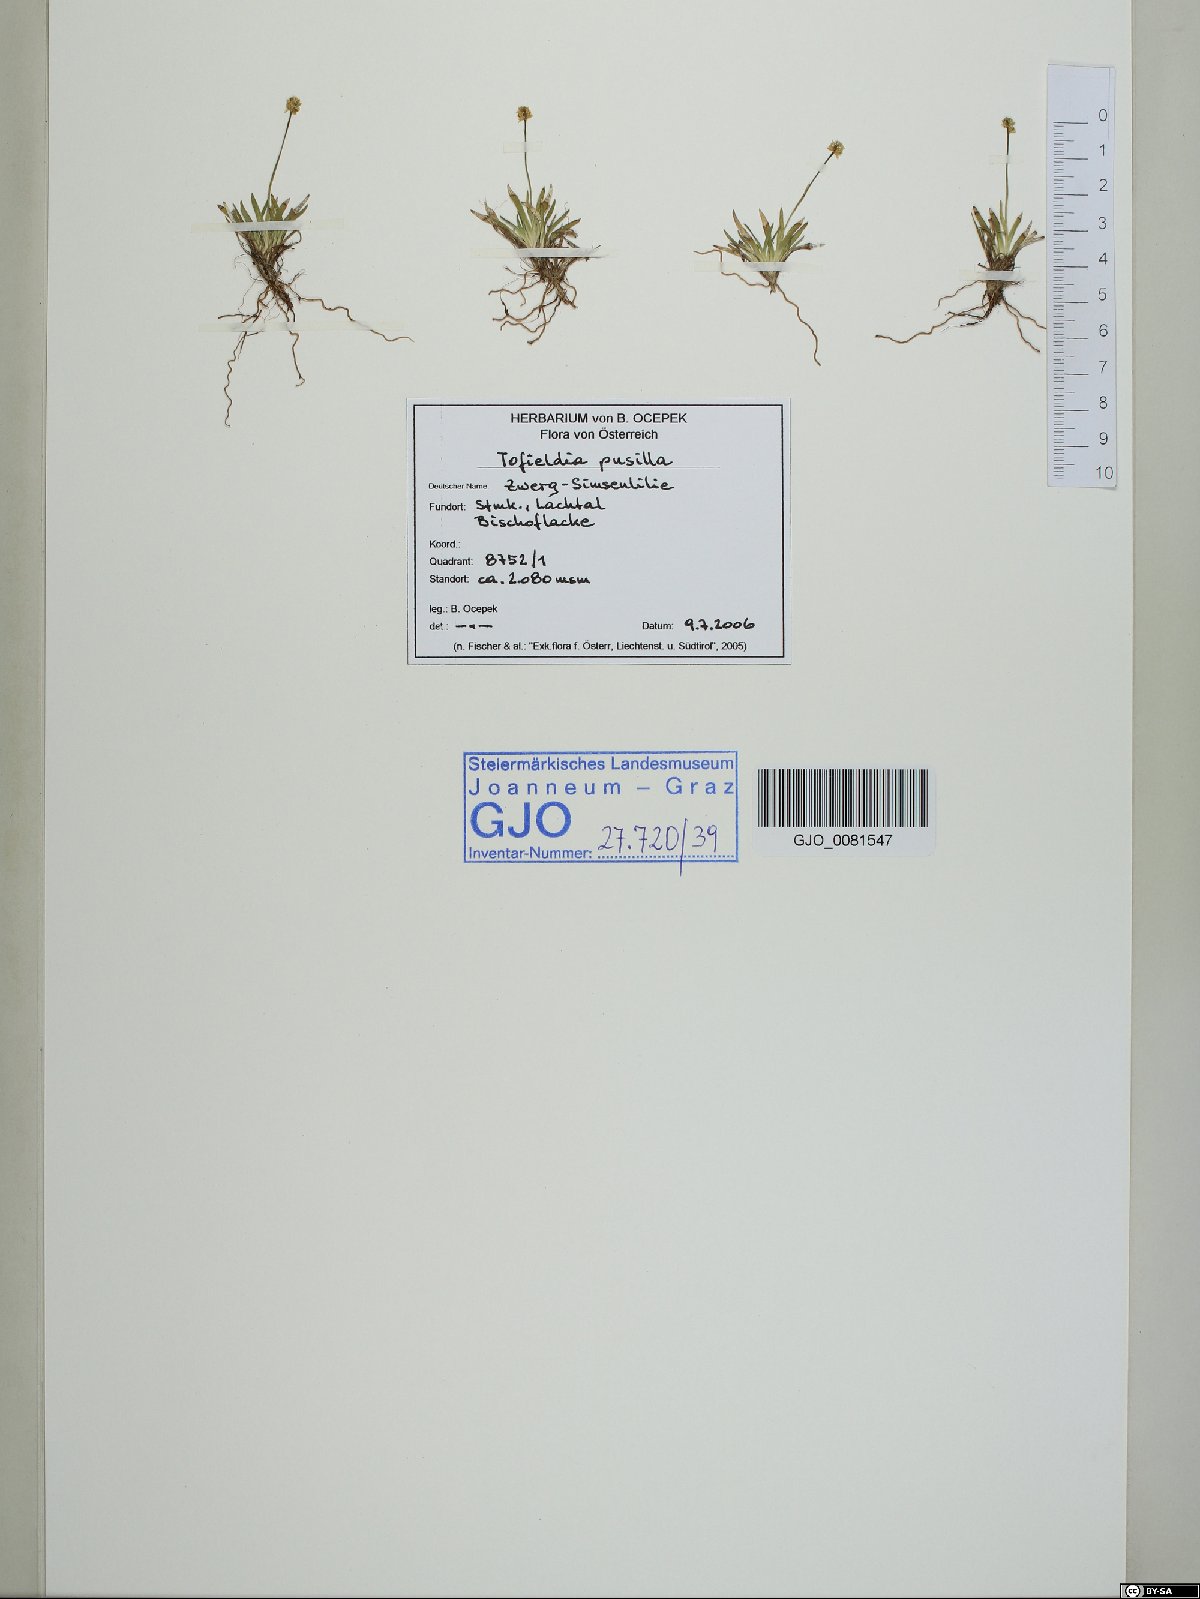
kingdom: Plantae
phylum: Tracheophyta
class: Liliopsida
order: Alismatales
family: Tofieldiaceae
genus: Tofieldia
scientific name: Tofieldia pusilla
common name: Scottish false asphodel
